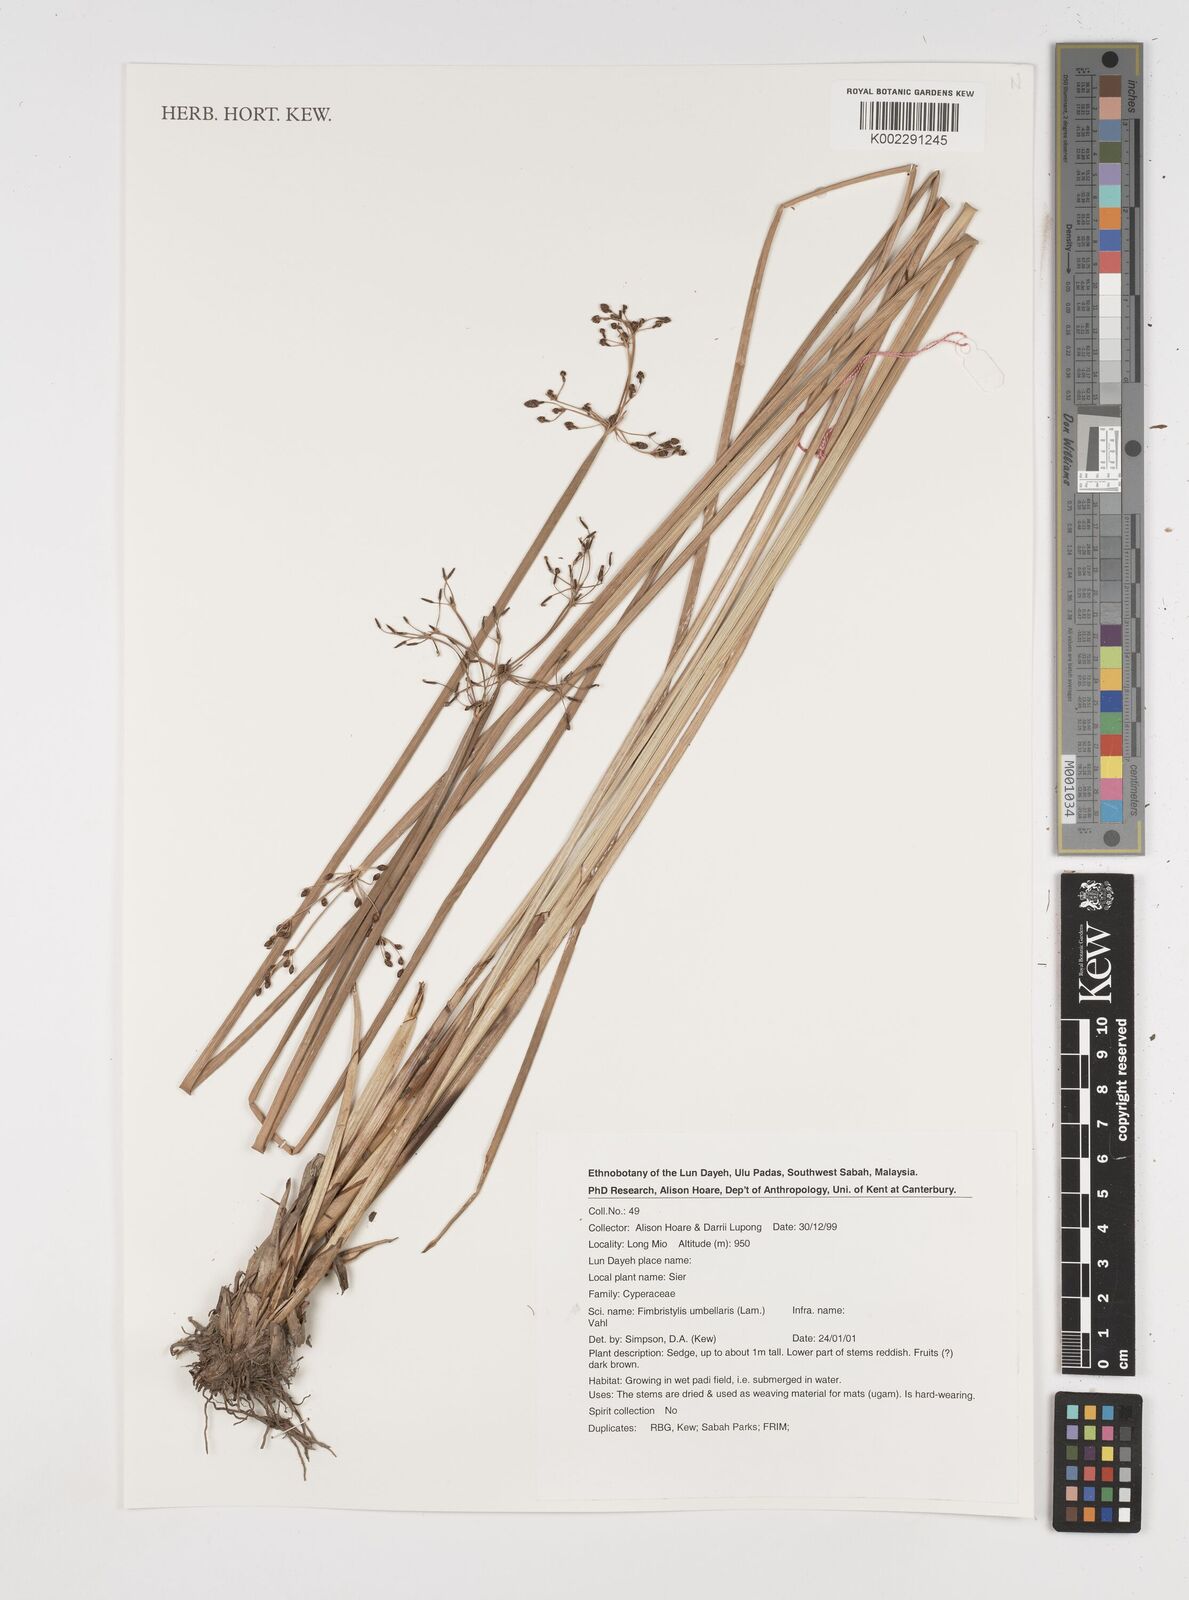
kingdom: Plantae
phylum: Tracheophyta
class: Liliopsida
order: Poales
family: Cyperaceae
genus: Fimbristylis
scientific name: Fimbristylis umbellaris
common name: Globular fimbristylis
